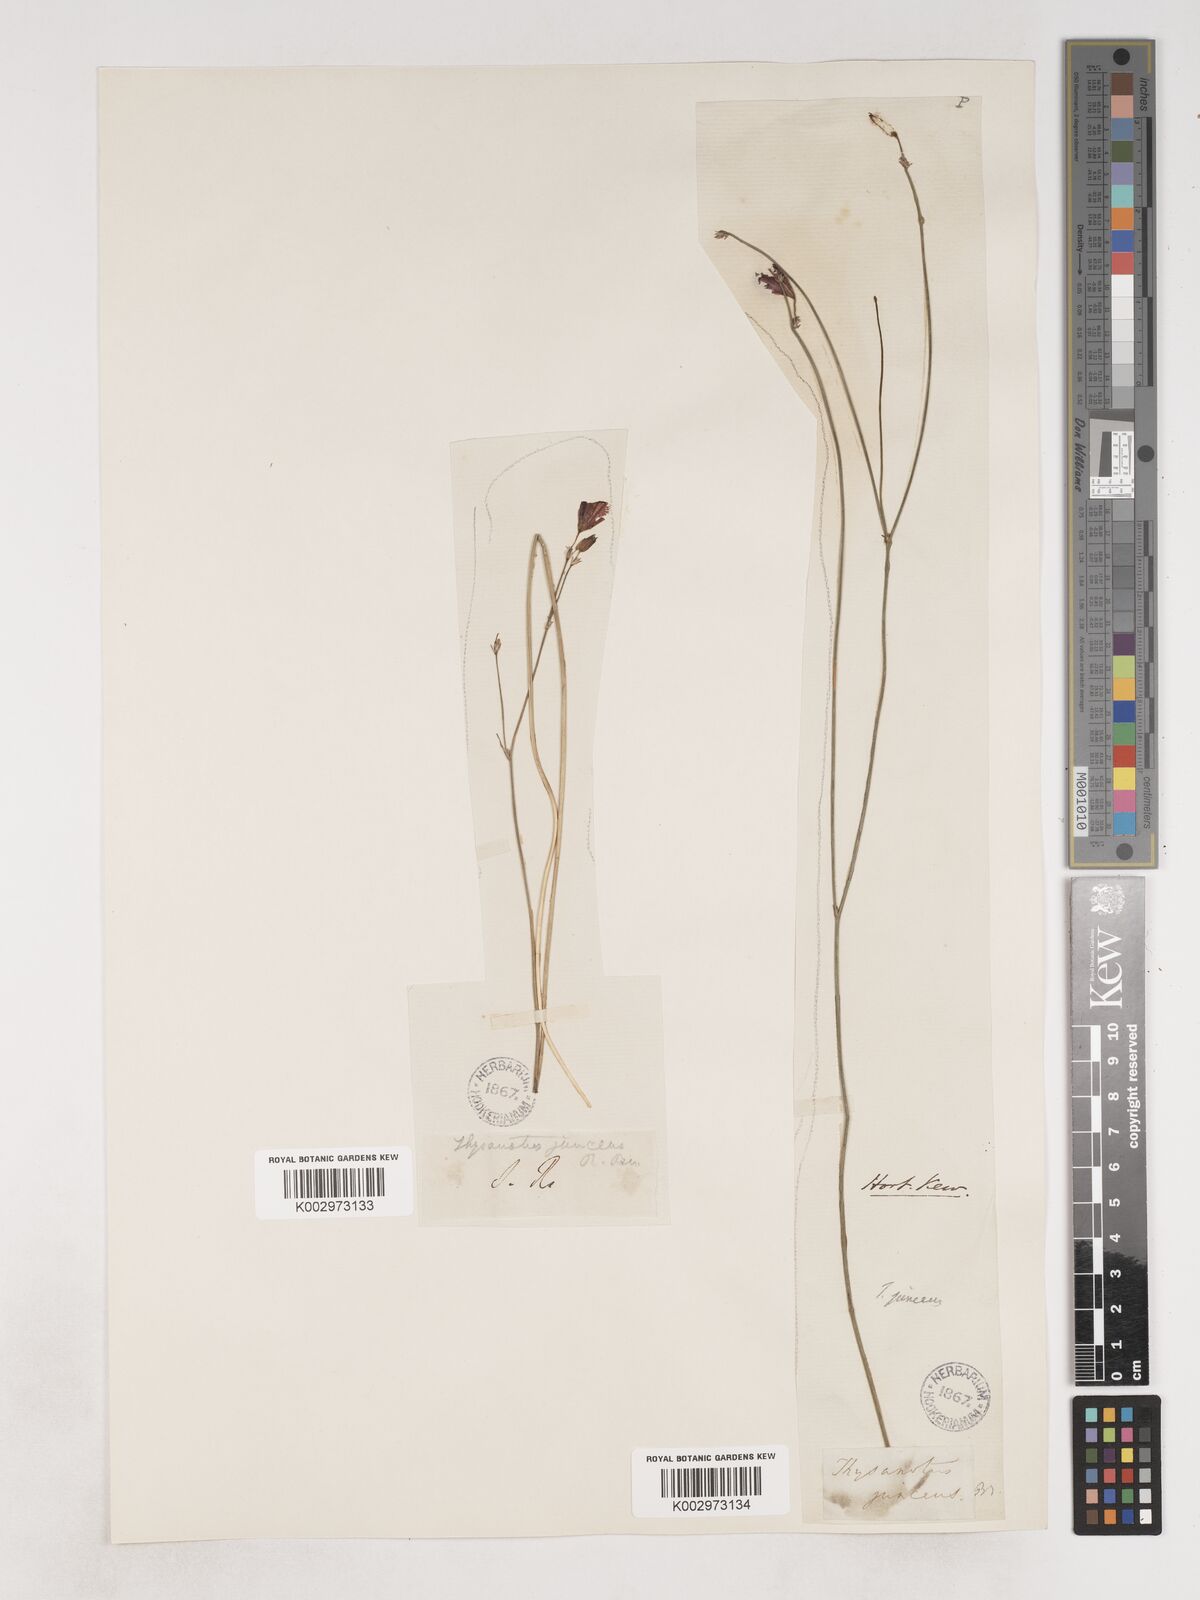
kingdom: Plantae
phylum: Tracheophyta
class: Liliopsida
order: Asparagales
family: Asparagaceae
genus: Thysanotus
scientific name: Thysanotus juncifolius
